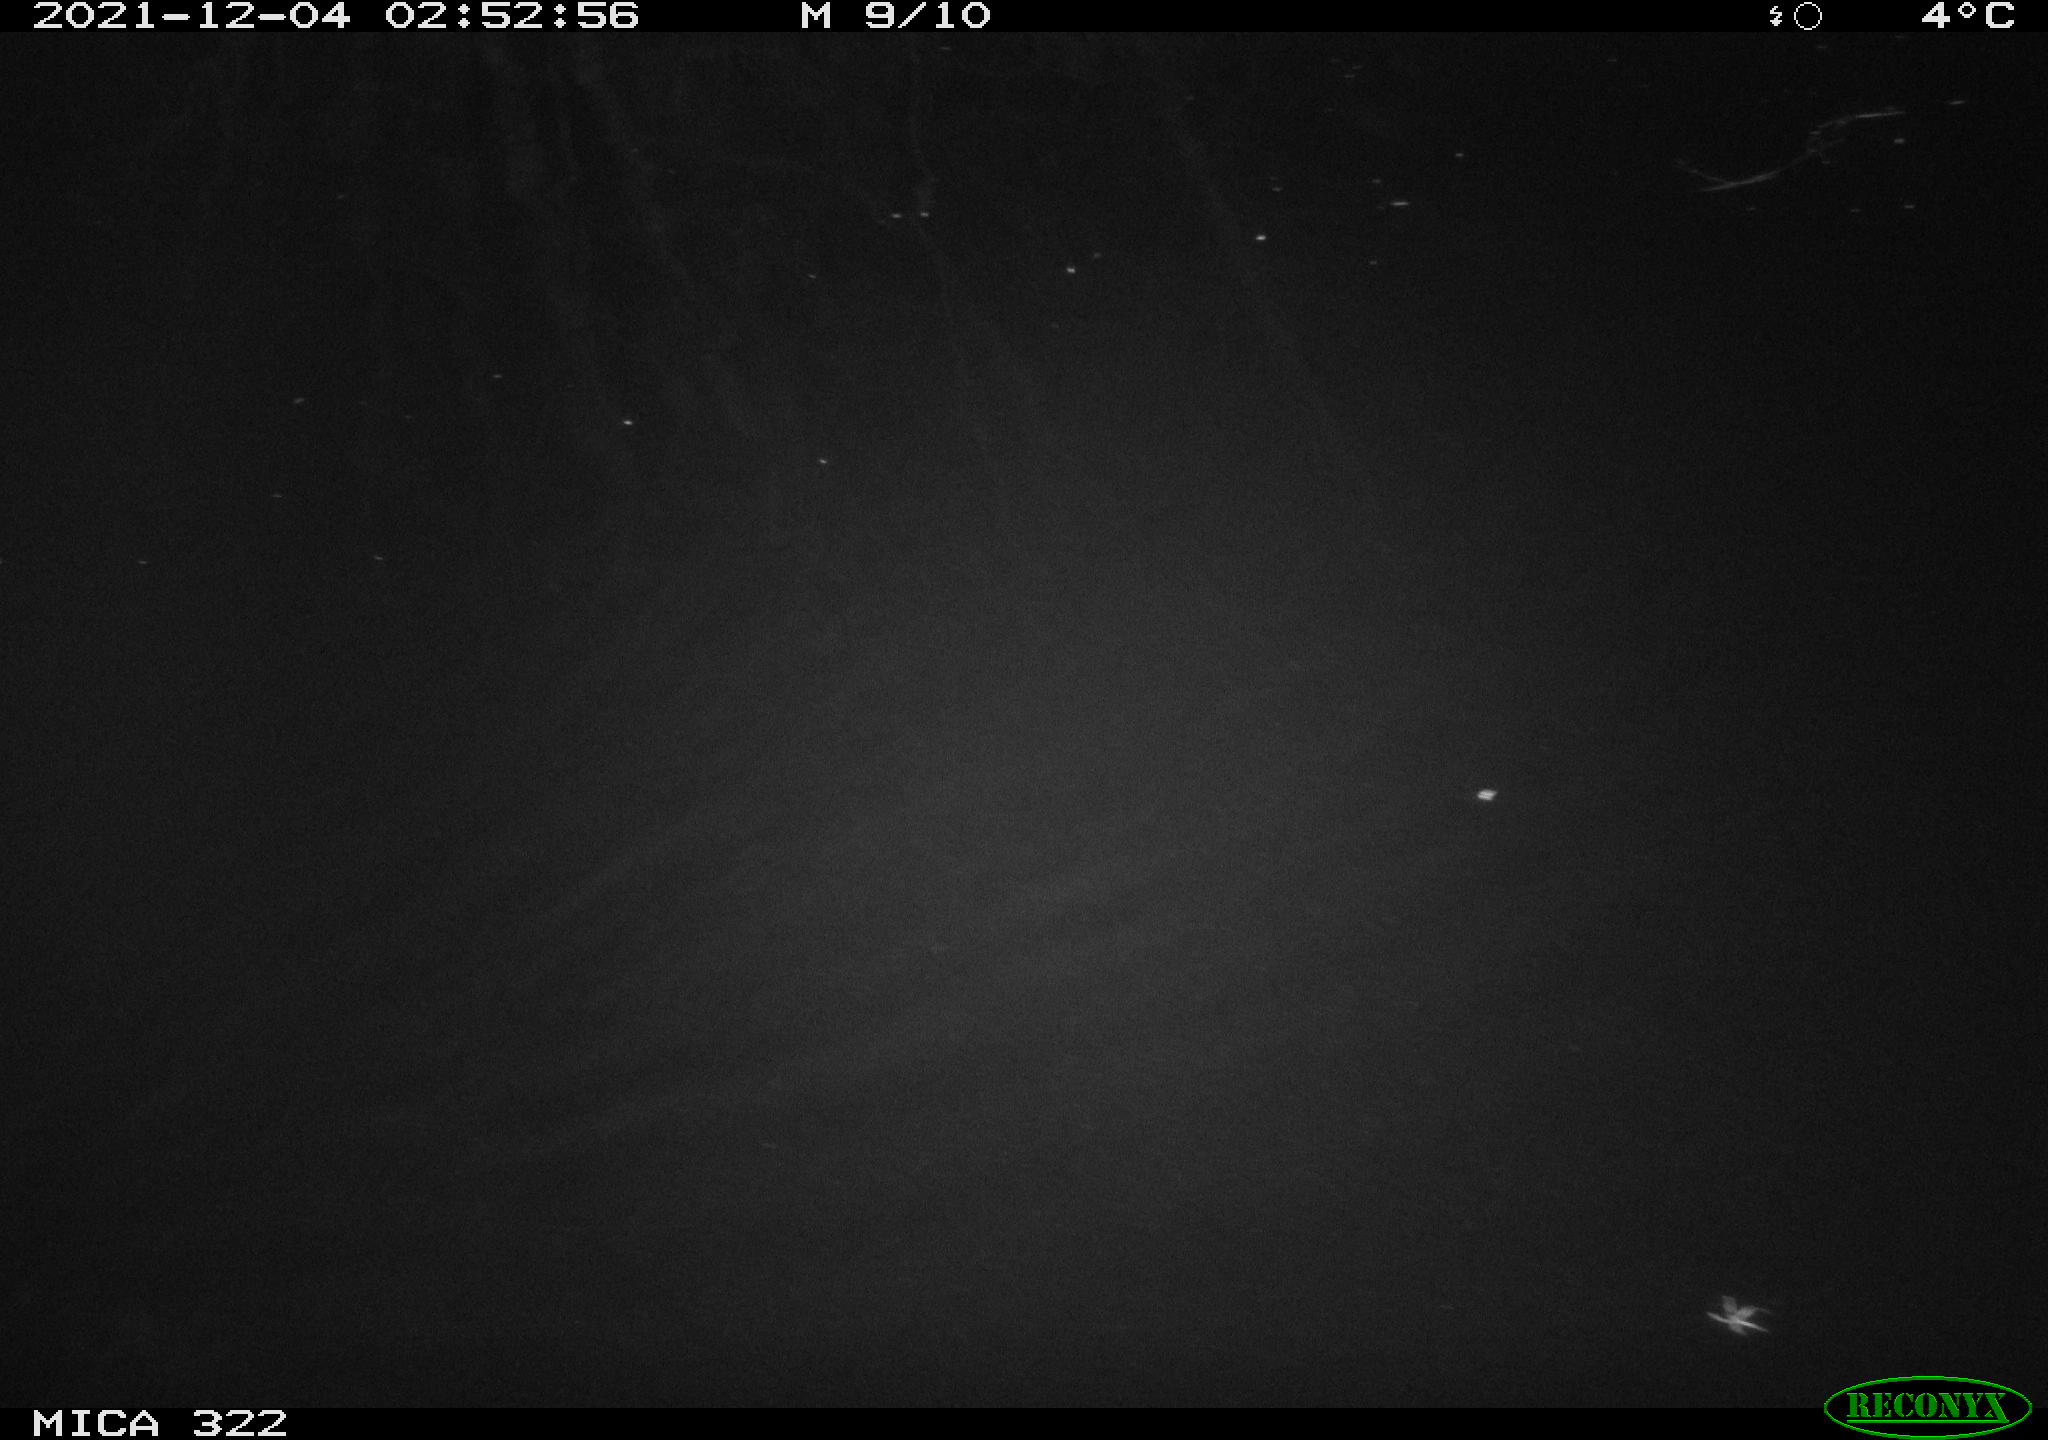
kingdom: Animalia
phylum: Chordata
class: Mammalia
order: Rodentia
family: Cricetidae
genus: Ondatra
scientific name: Ondatra zibethicus
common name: Muskrat
